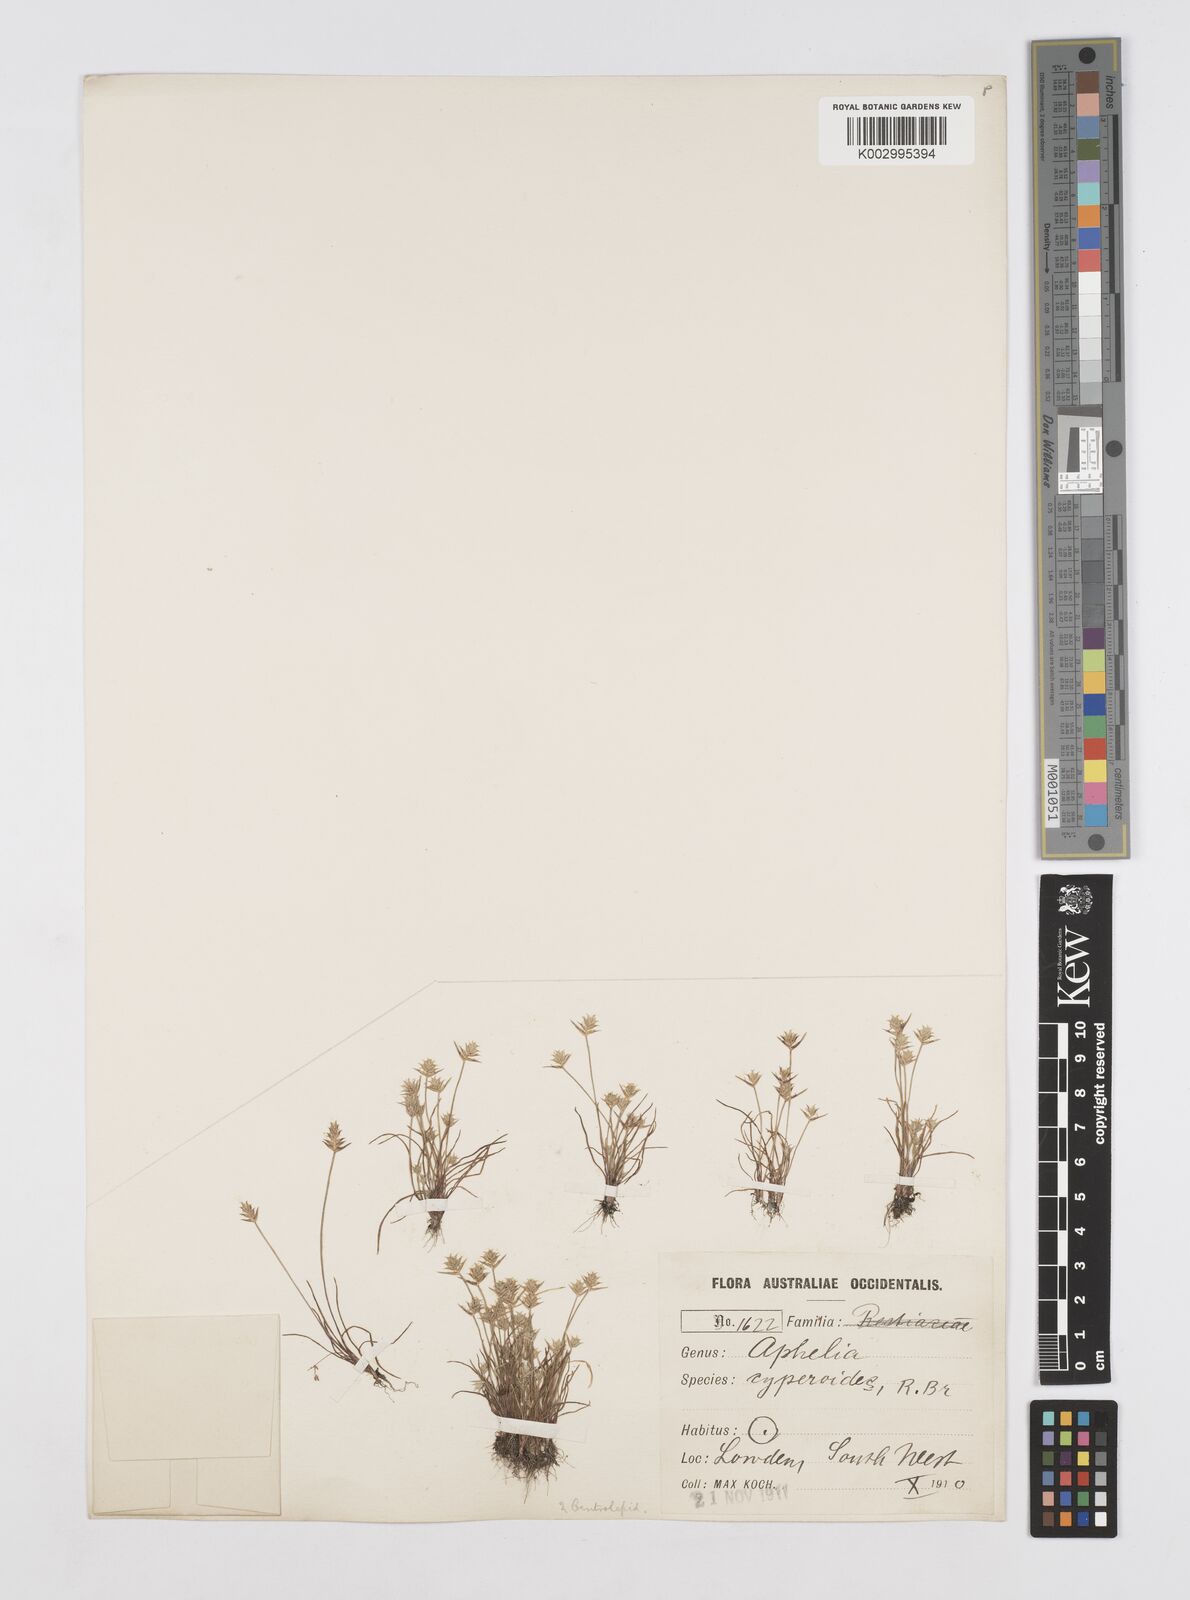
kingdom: Plantae
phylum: Tracheophyta
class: Liliopsida
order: Poales
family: Restionaceae
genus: Aphelia
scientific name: Aphelia cyperoides
